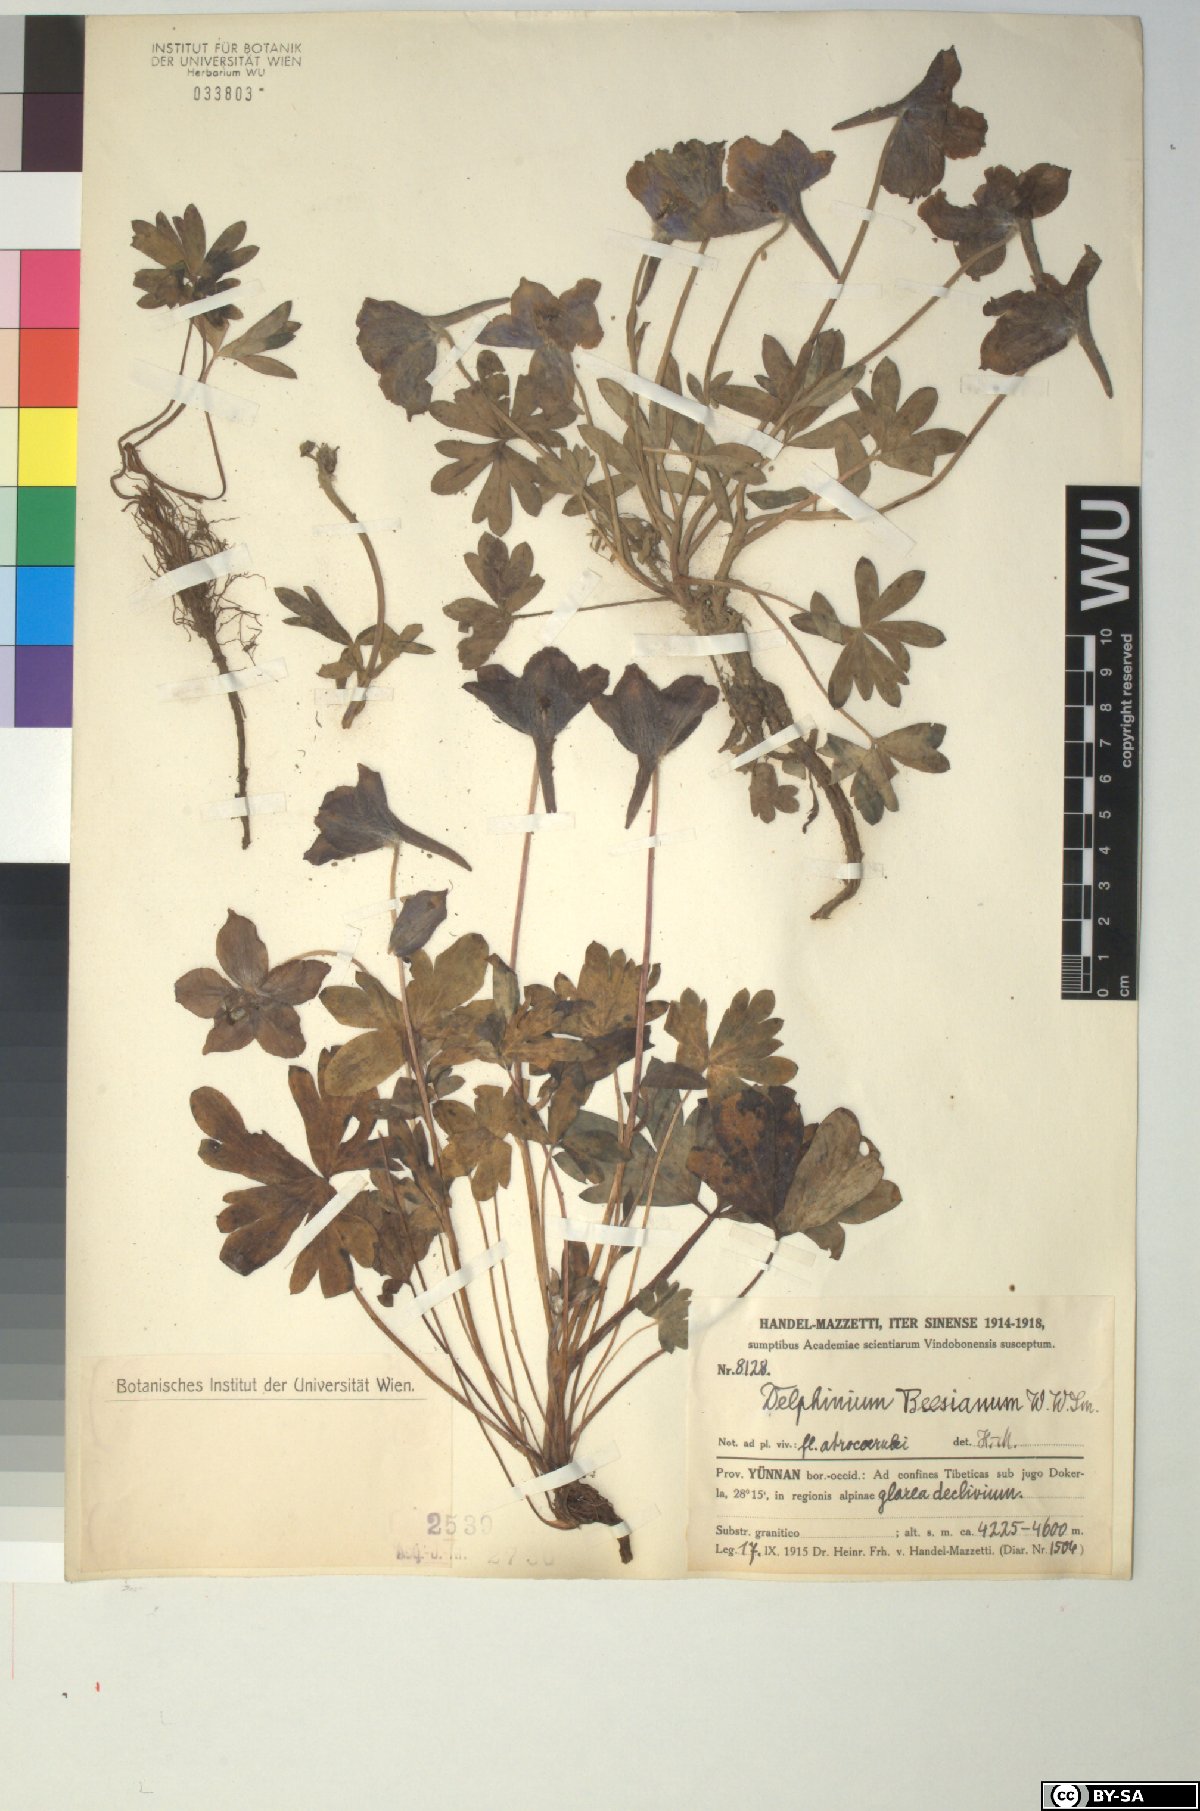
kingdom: Plantae
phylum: Tracheophyta
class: Magnoliopsida
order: Ranunculales
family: Ranunculaceae
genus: Delphinium
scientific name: Delphinium beesianum
